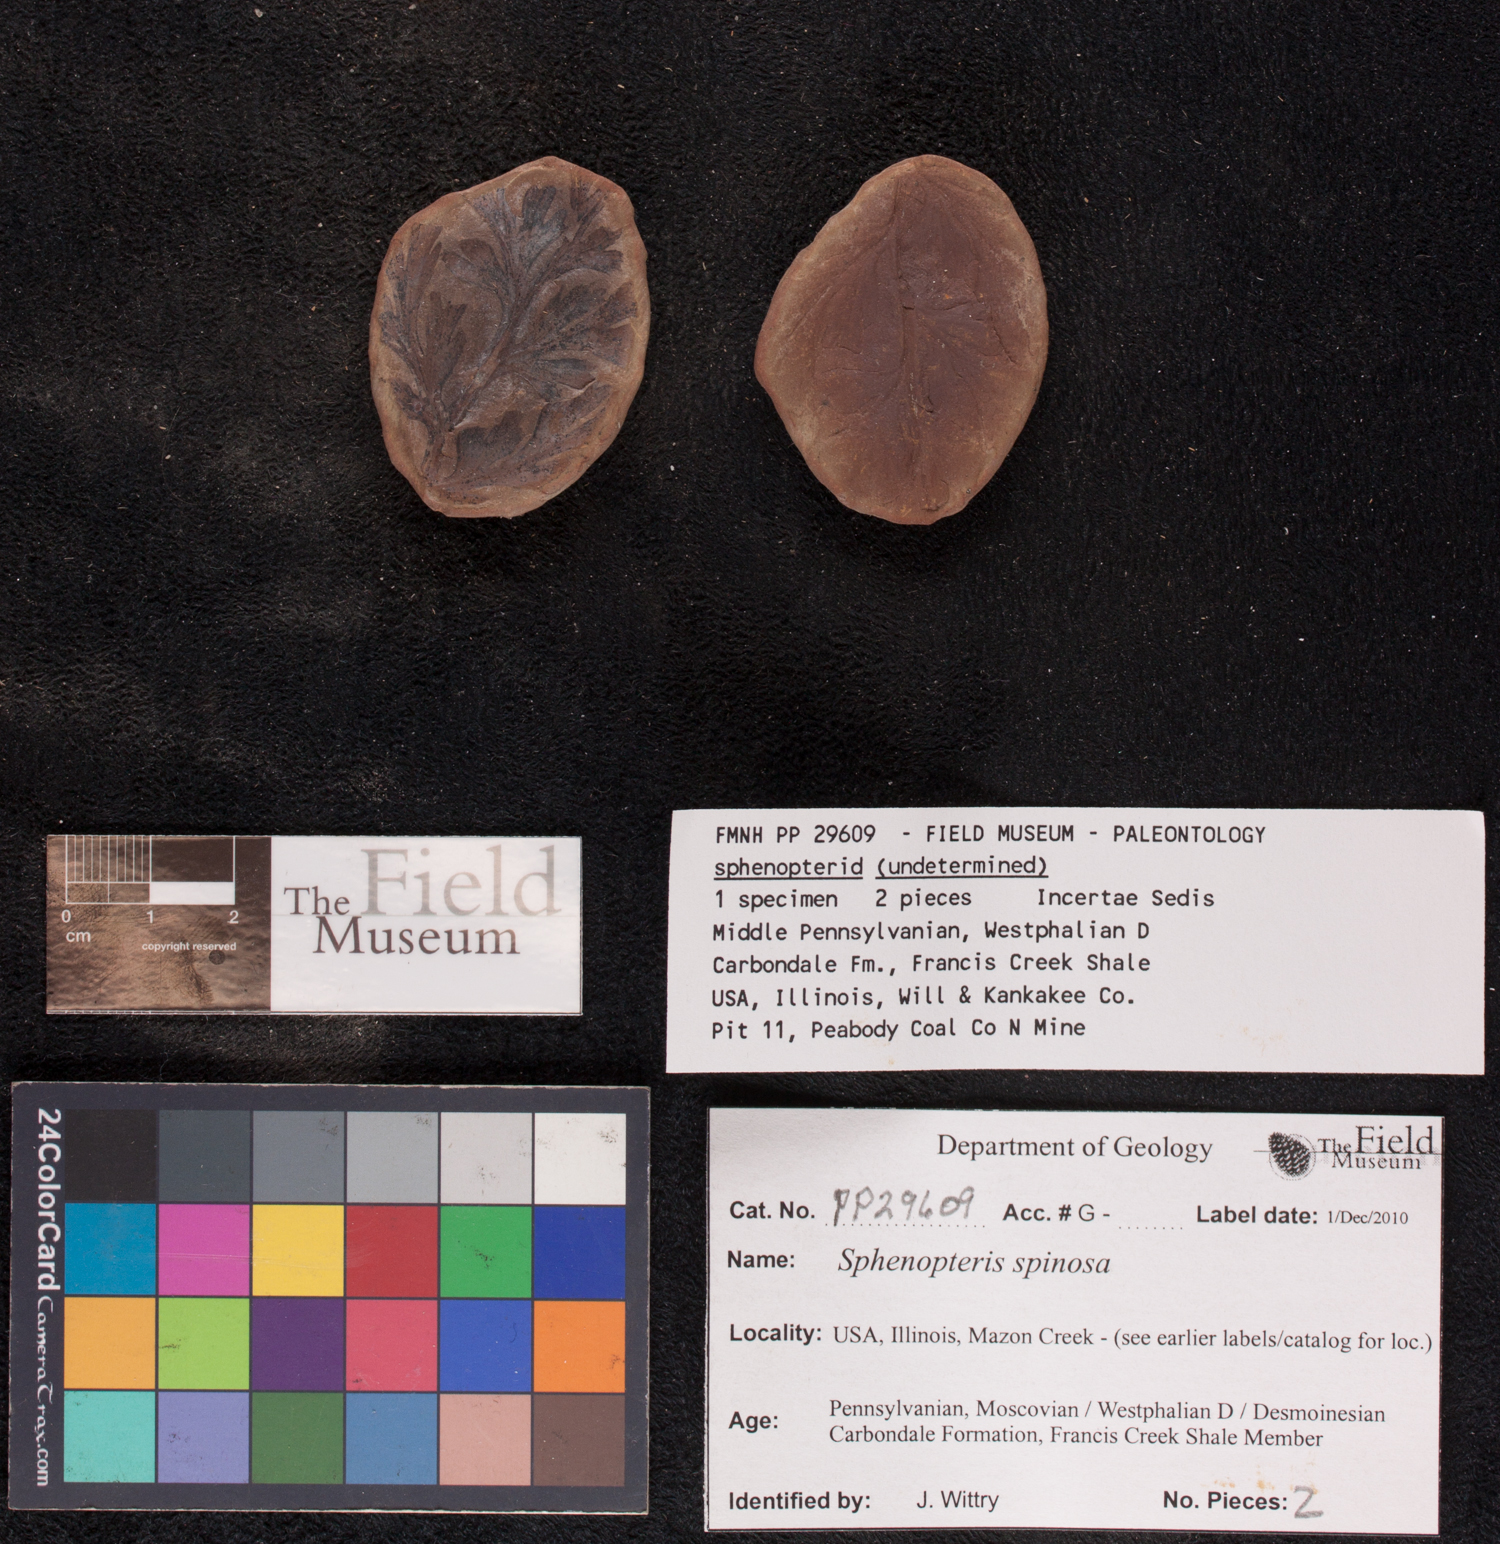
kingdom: Plantae
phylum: Tracheophyta
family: Lyginopteridaceae
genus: Sphenopteris
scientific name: Sphenopteris
